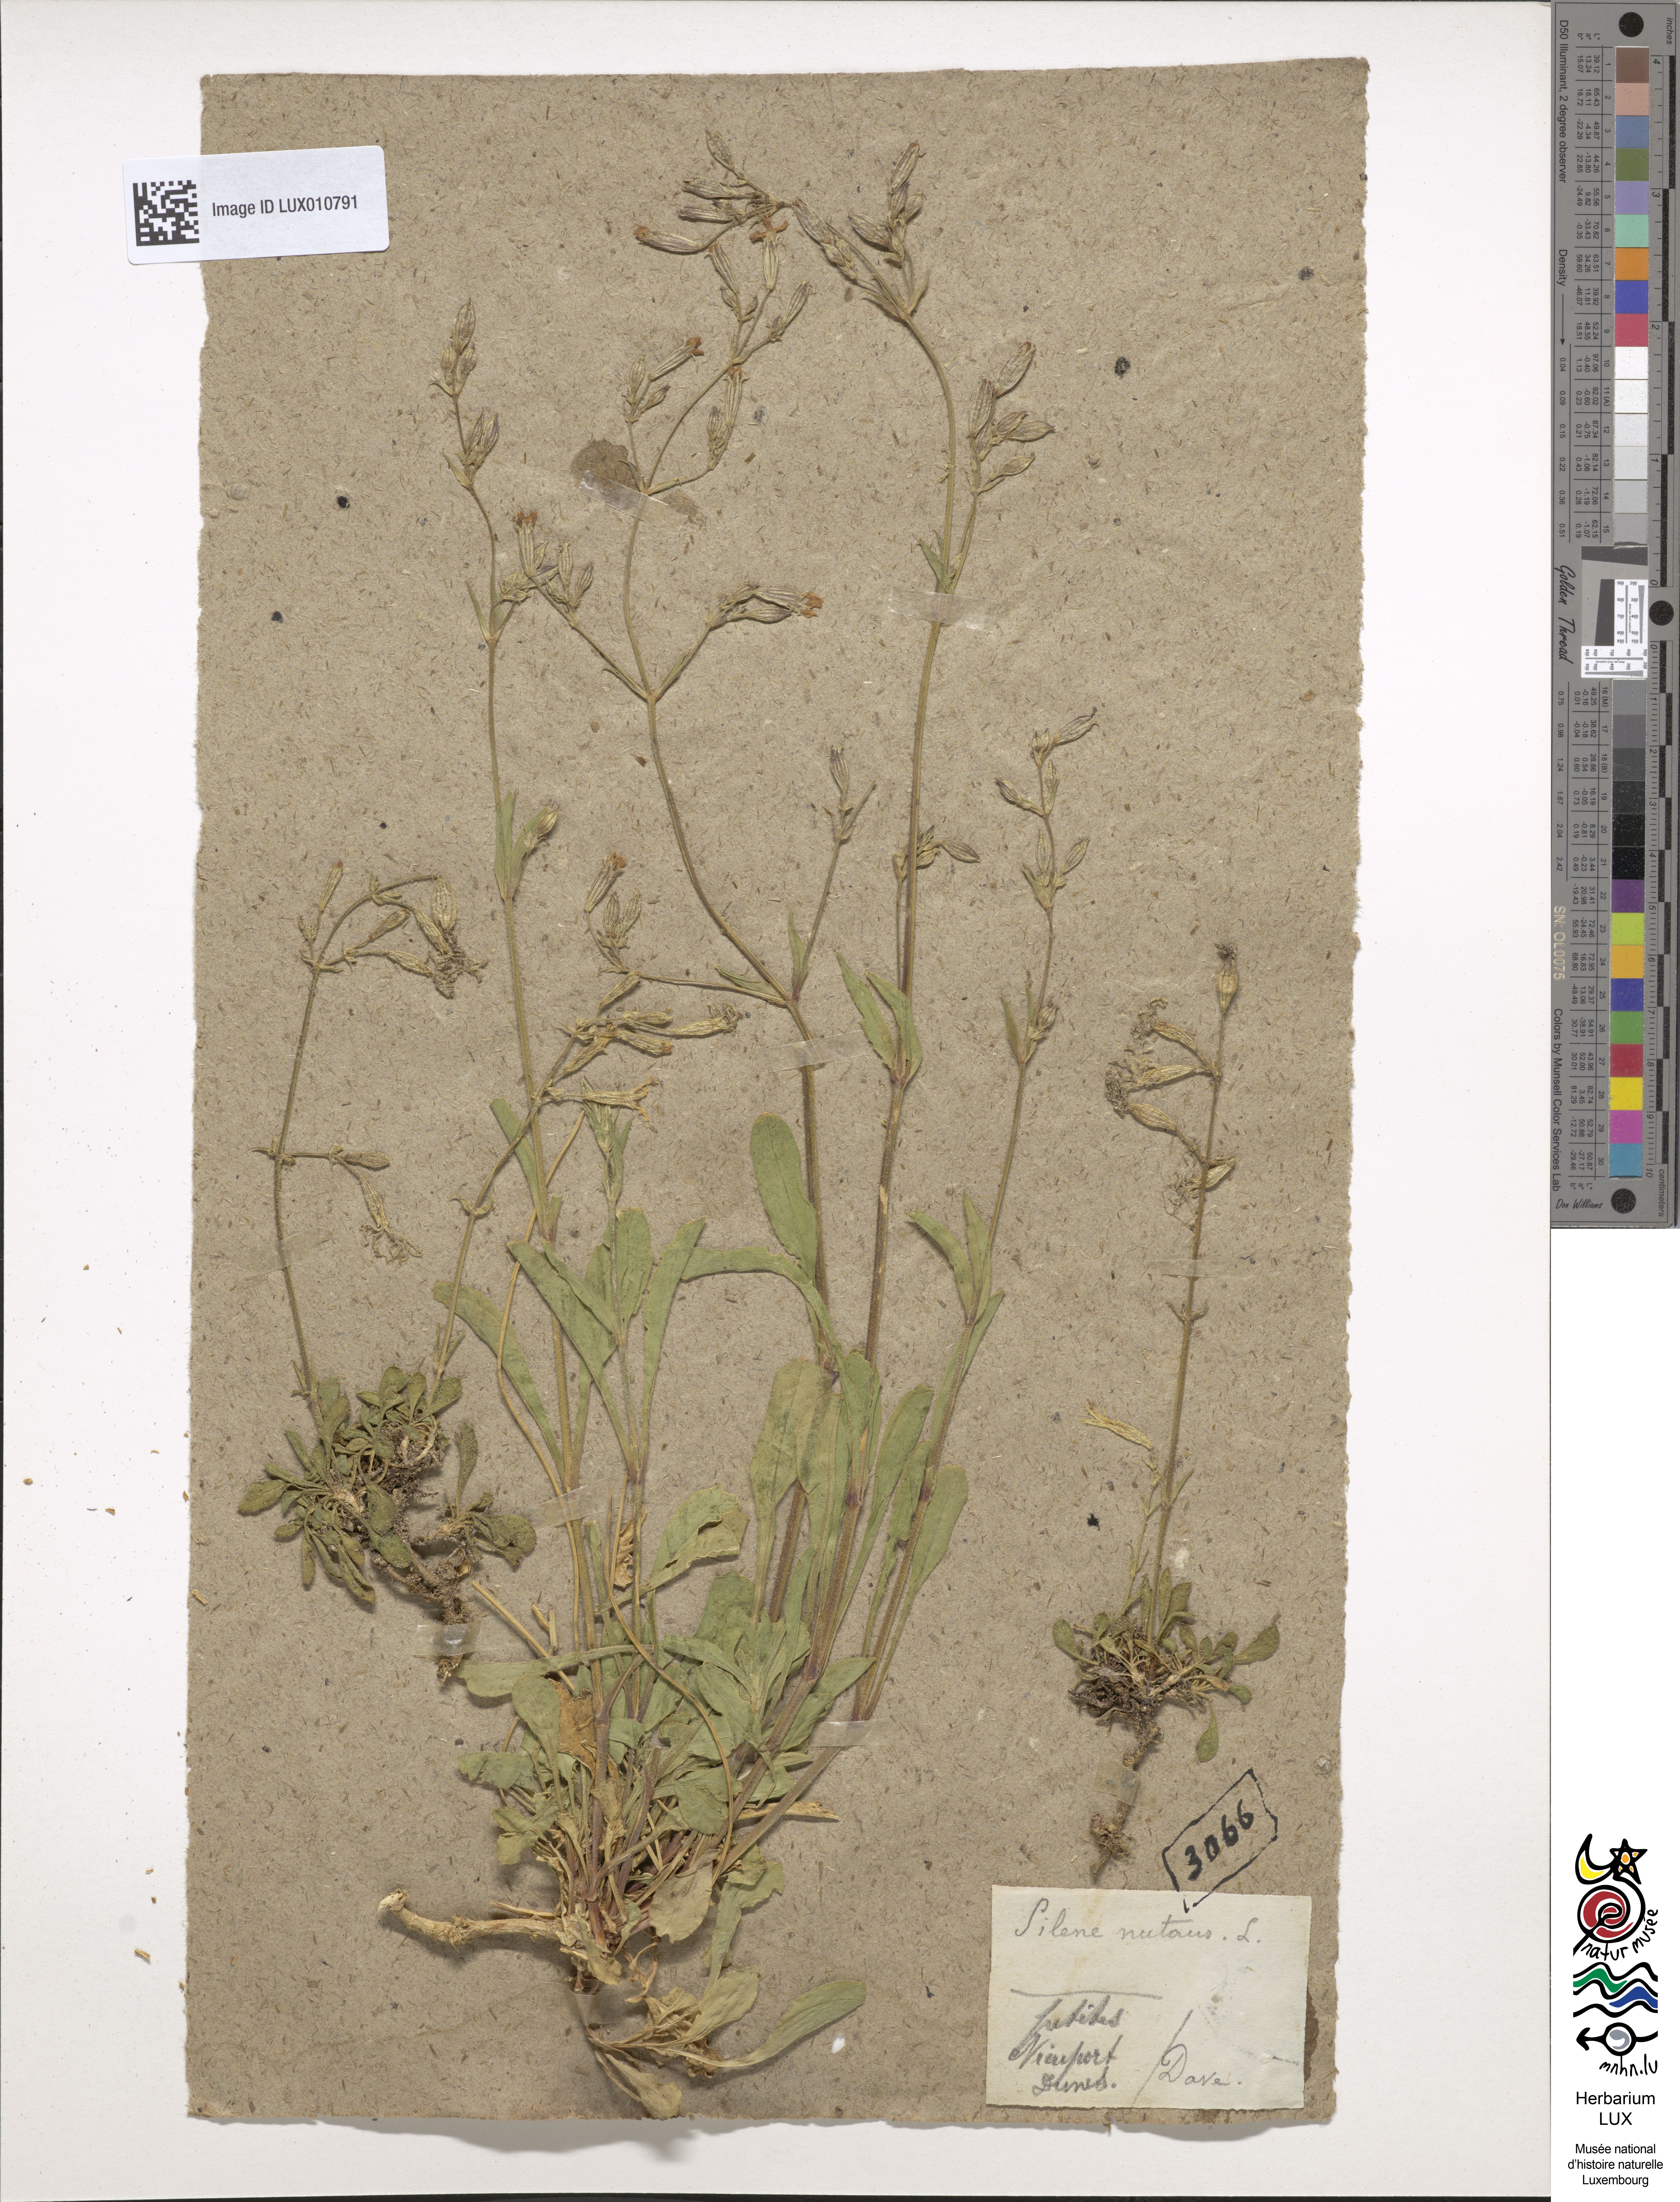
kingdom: Plantae
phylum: Tracheophyta
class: Magnoliopsida
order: Caryophyllales
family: Caryophyllaceae
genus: Silene
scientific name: Silene nutans
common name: Nottingham catchfly
